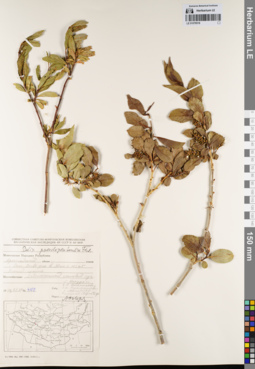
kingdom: Plantae
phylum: Tracheophyta
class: Magnoliopsida
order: Malpighiales
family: Salicaceae
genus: Salix
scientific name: Salix pseudopentandra
